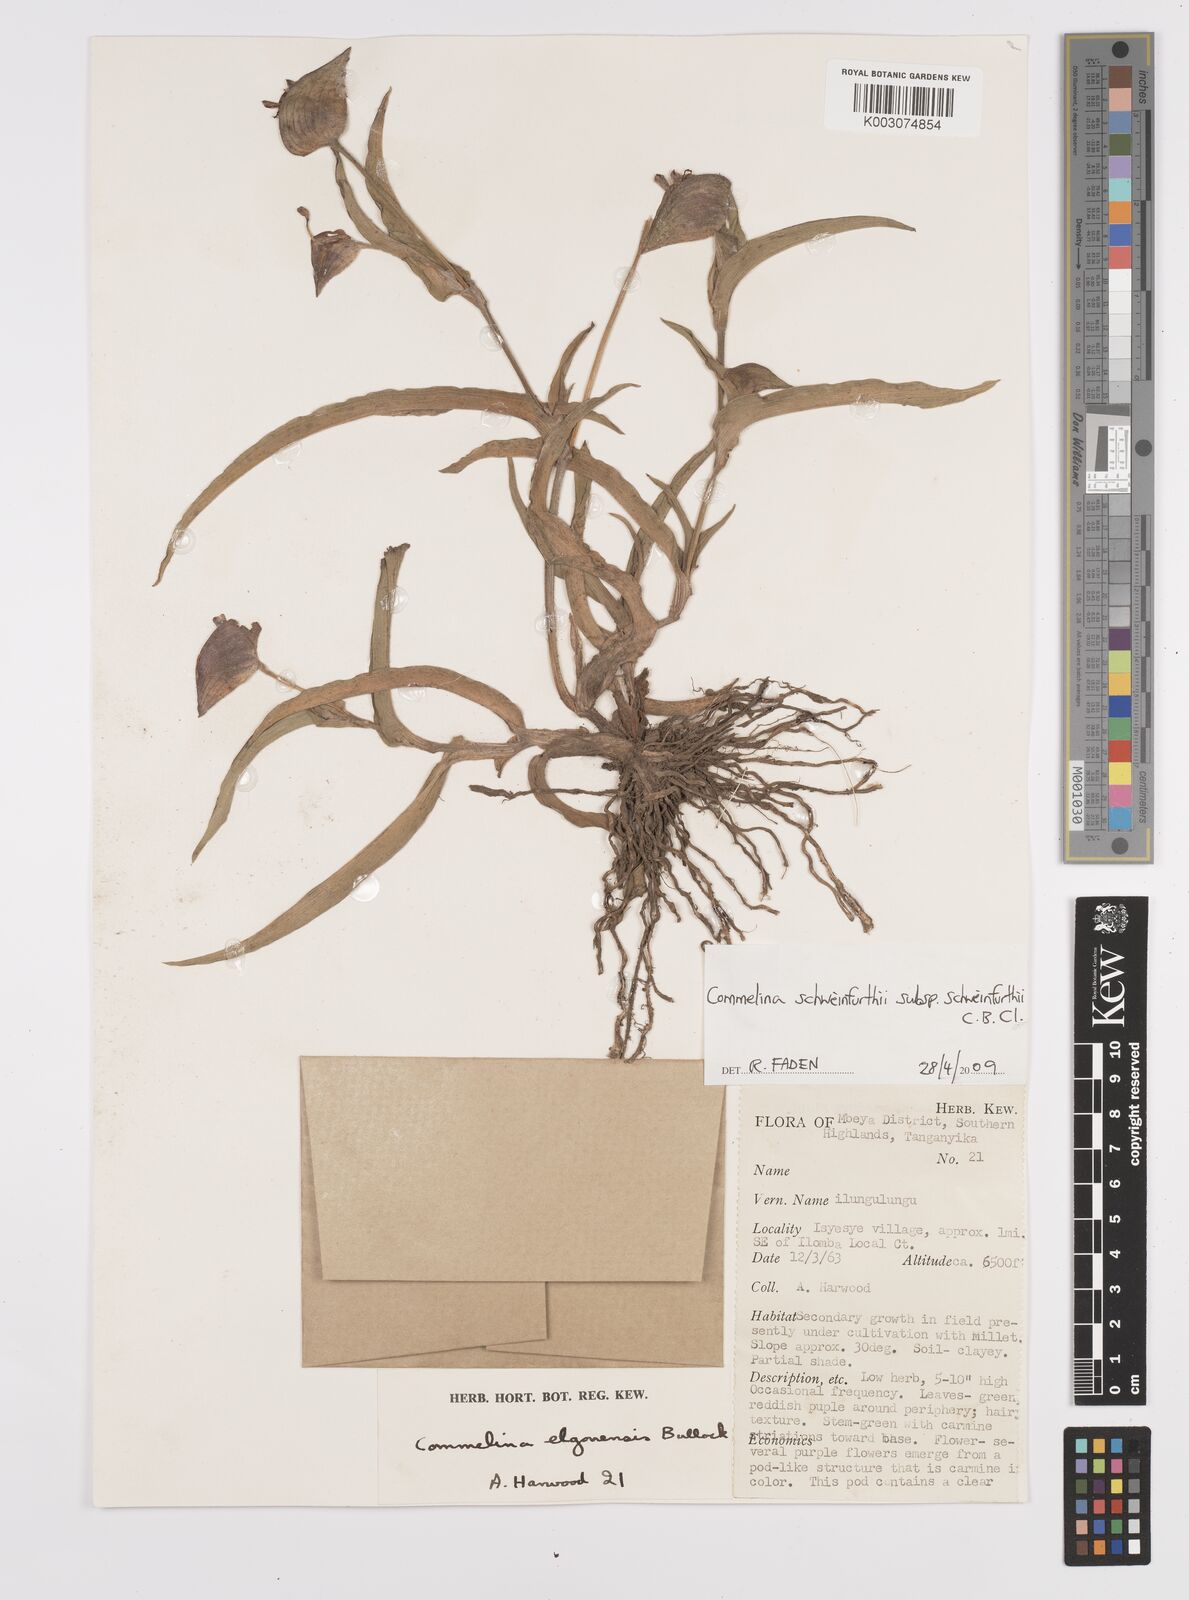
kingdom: Plantae
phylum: Tracheophyta
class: Liliopsida
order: Commelinales
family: Commelinaceae
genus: Commelina
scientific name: Commelina schweinfurthii
